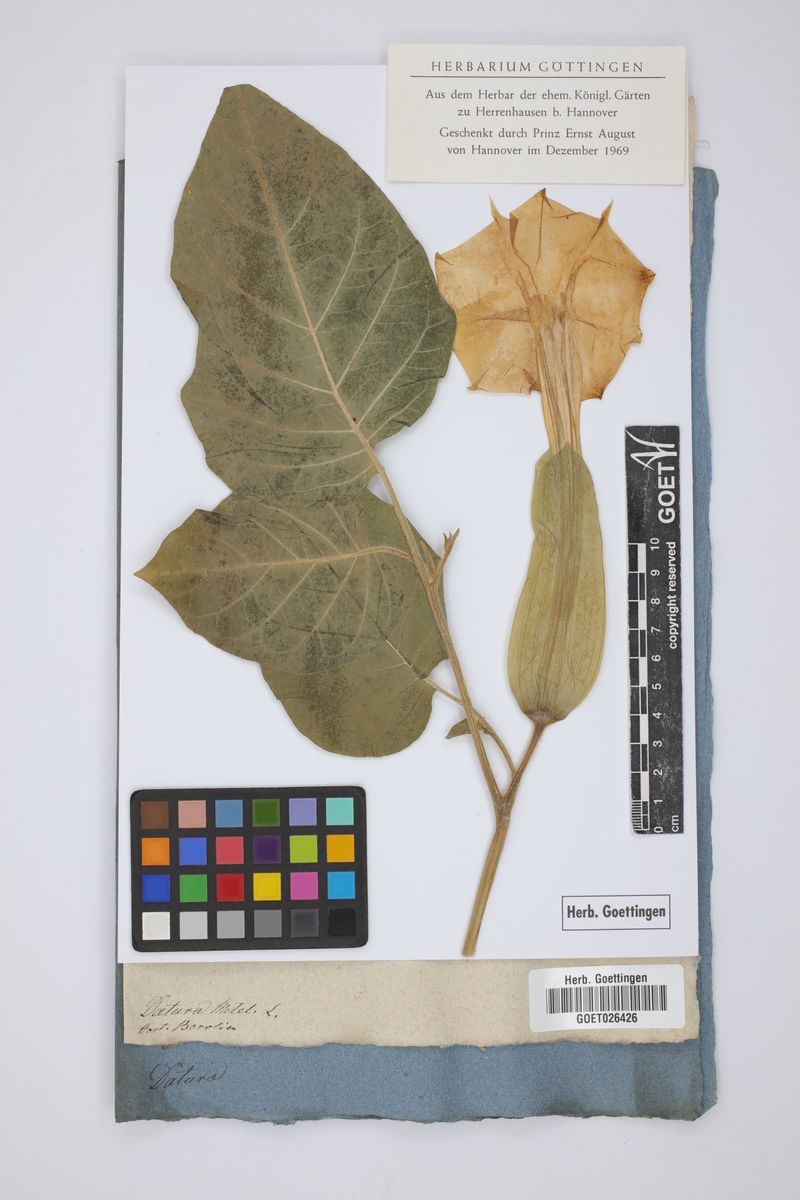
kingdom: Plantae
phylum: Tracheophyta
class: Magnoliopsida
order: Solanales
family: Solanaceae
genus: Datura
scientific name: Datura metel
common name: Jimsonweed
